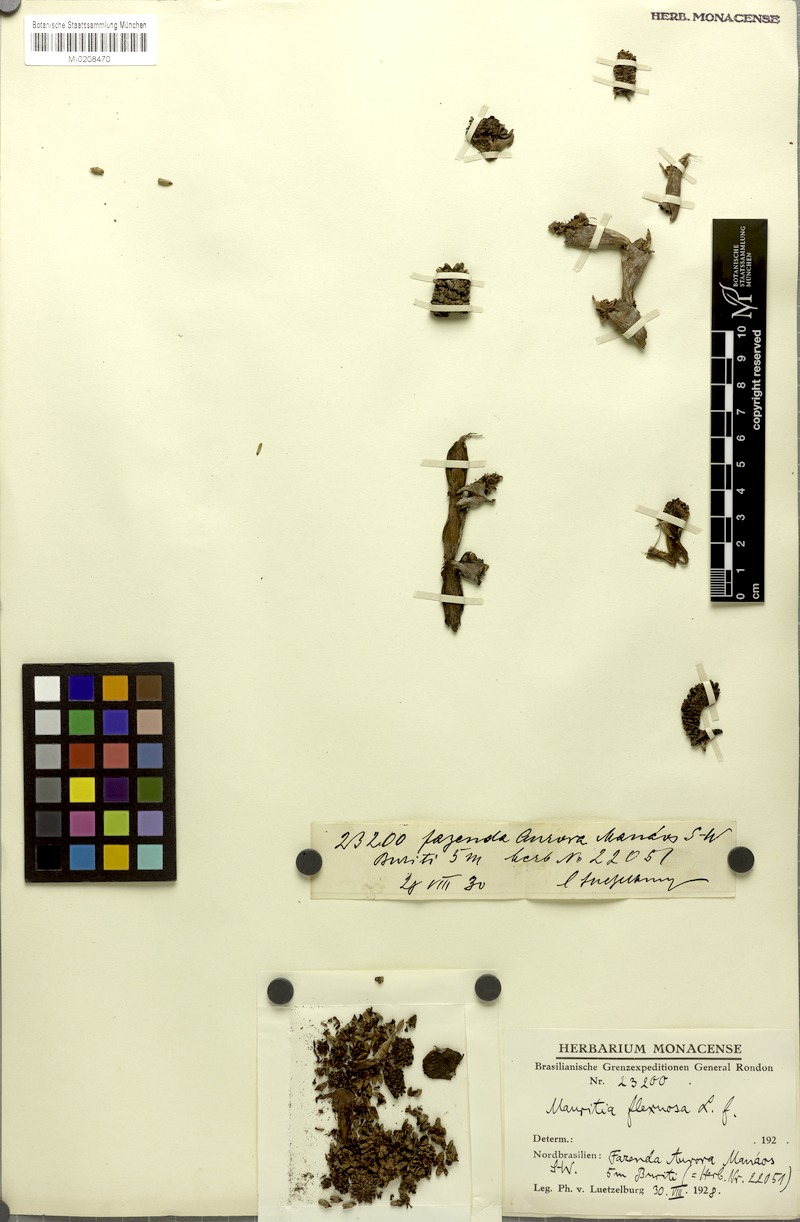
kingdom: Plantae
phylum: Tracheophyta
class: Liliopsida
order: Arecales
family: Arecaceae
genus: Mauritia
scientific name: Mauritia flexuosa
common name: Tree-of-life
